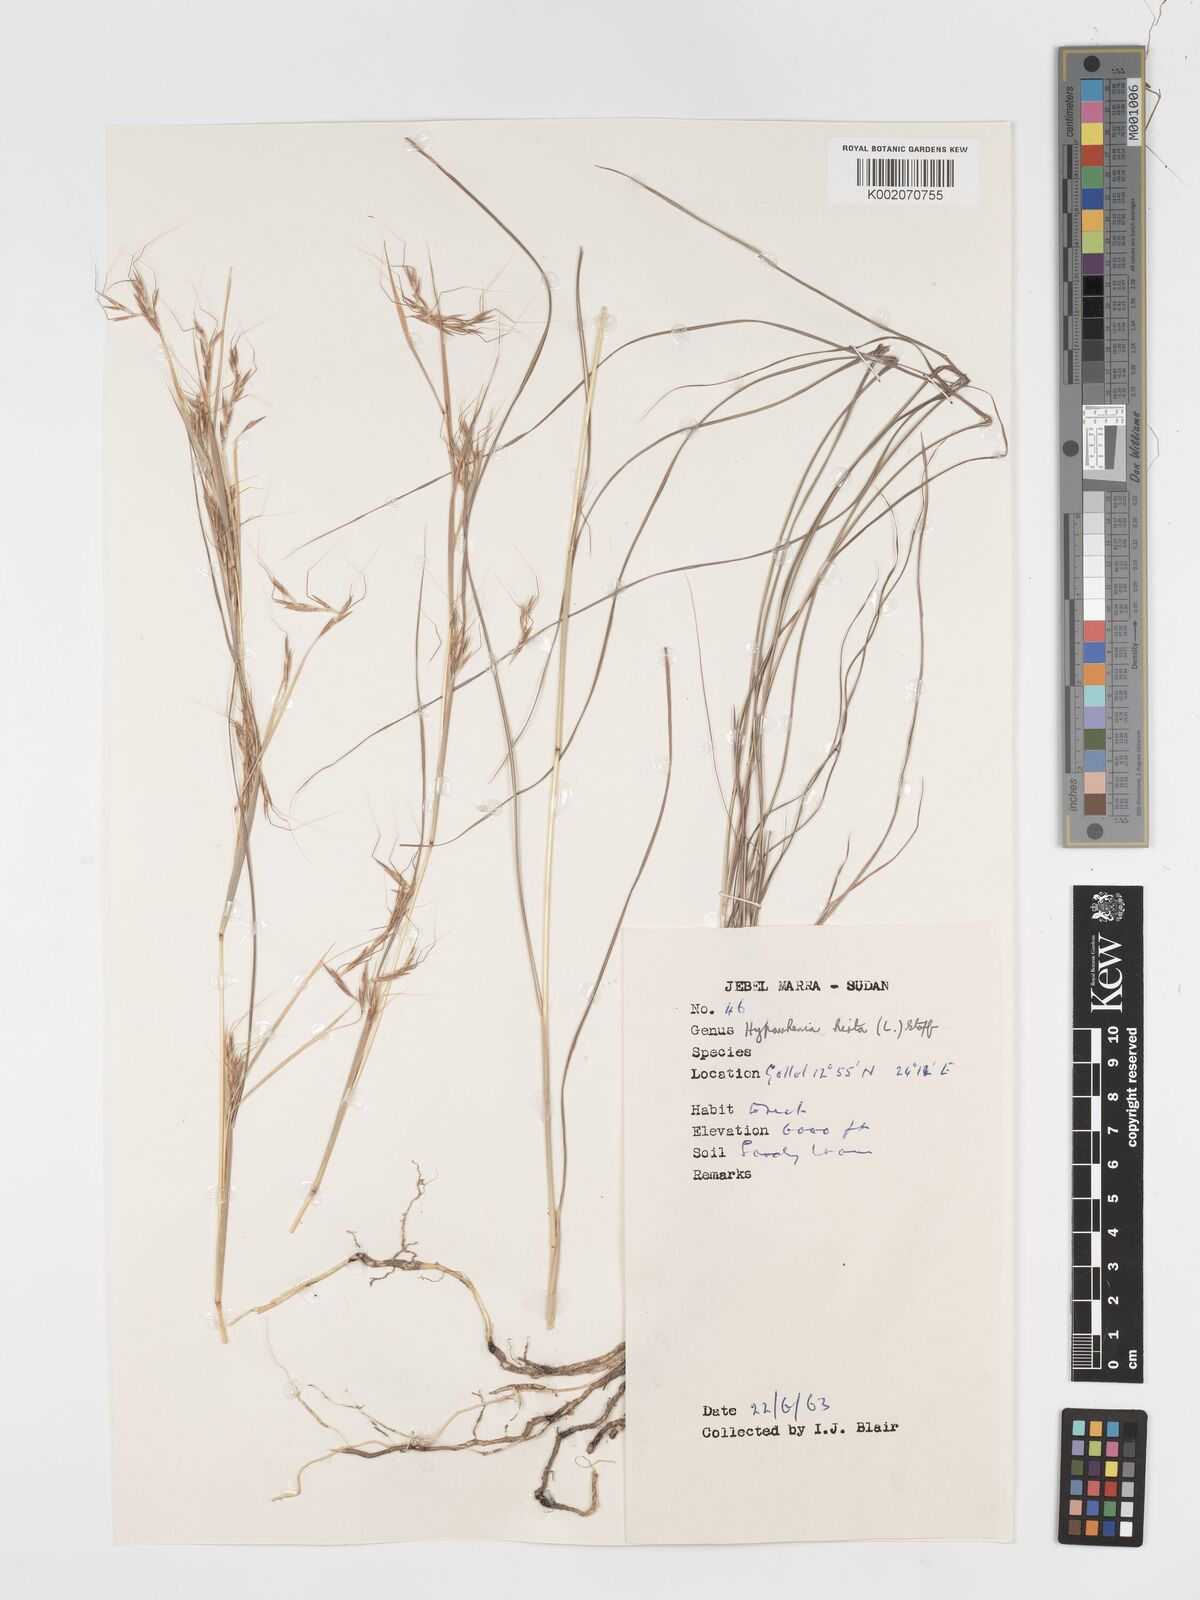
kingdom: Plantae
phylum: Tracheophyta
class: Liliopsida
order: Poales
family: Poaceae
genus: Hyparrhenia
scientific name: Hyparrhenia hirta
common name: Thatching grass
